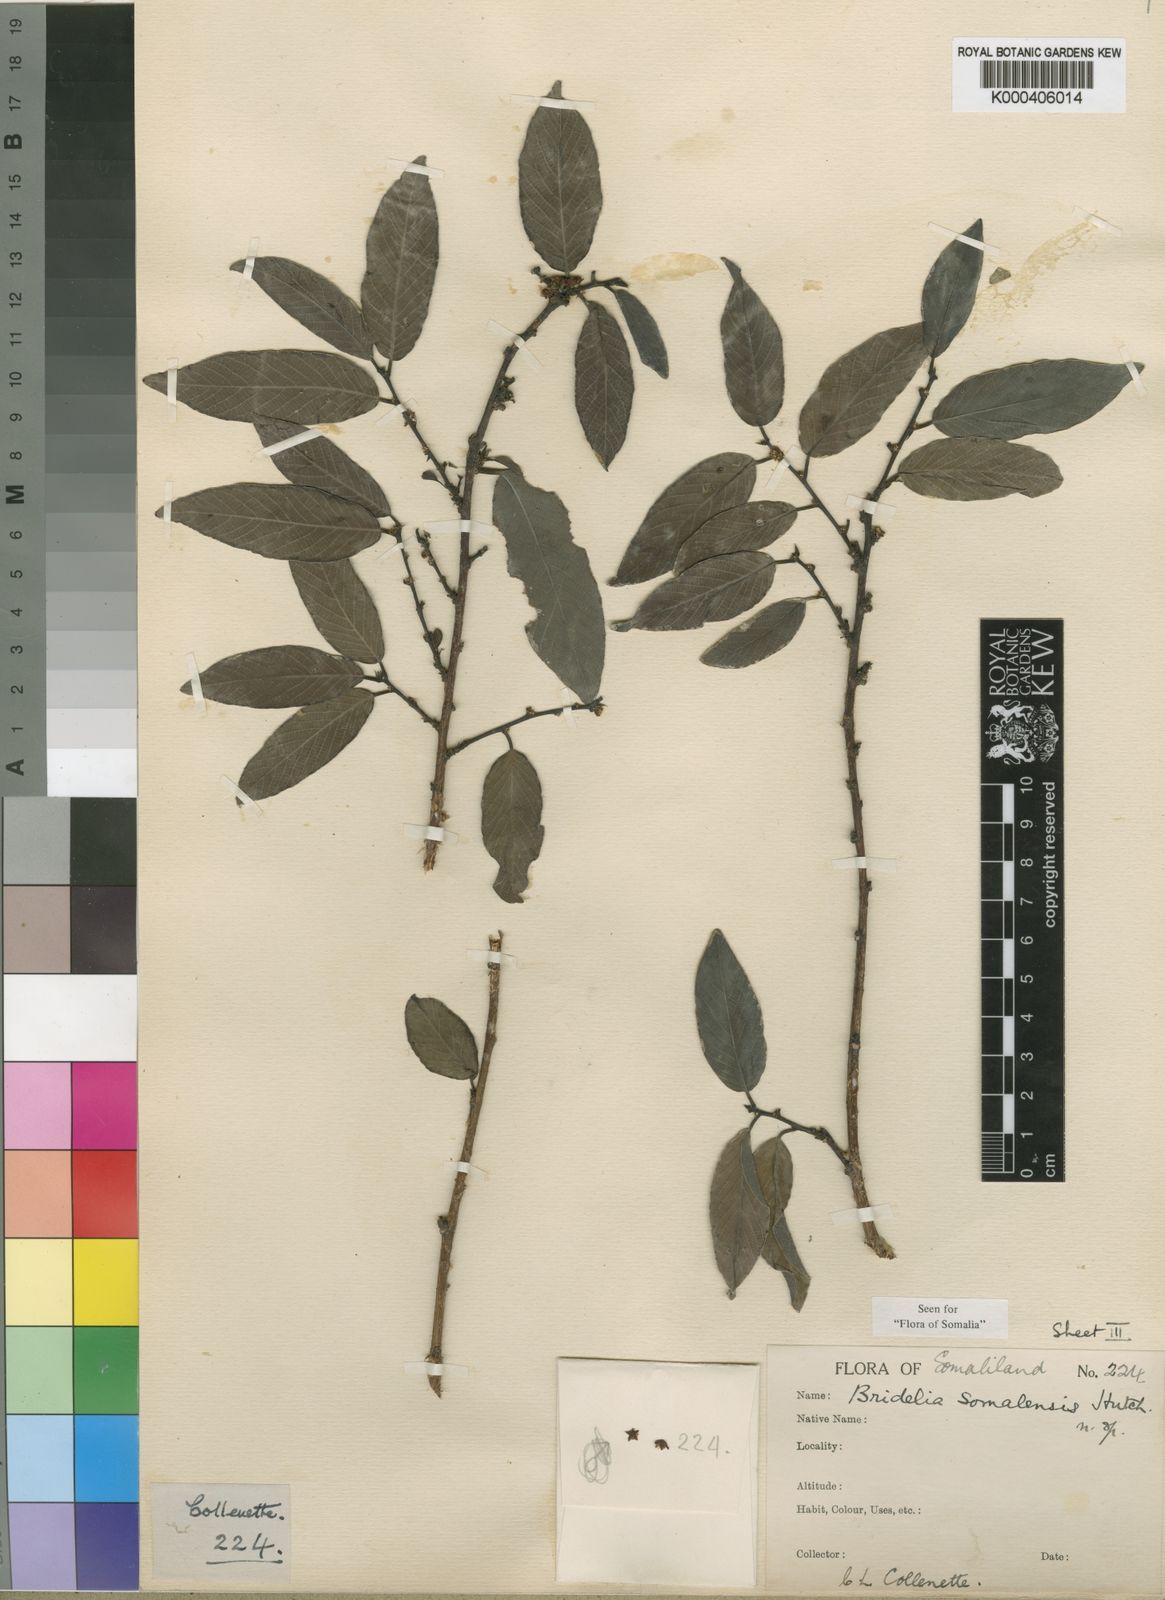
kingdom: Plantae
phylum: Tracheophyta
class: Magnoliopsida
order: Malpighiales
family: Phyllanthaceae
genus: Bridelia
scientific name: Bridelia somalensis
